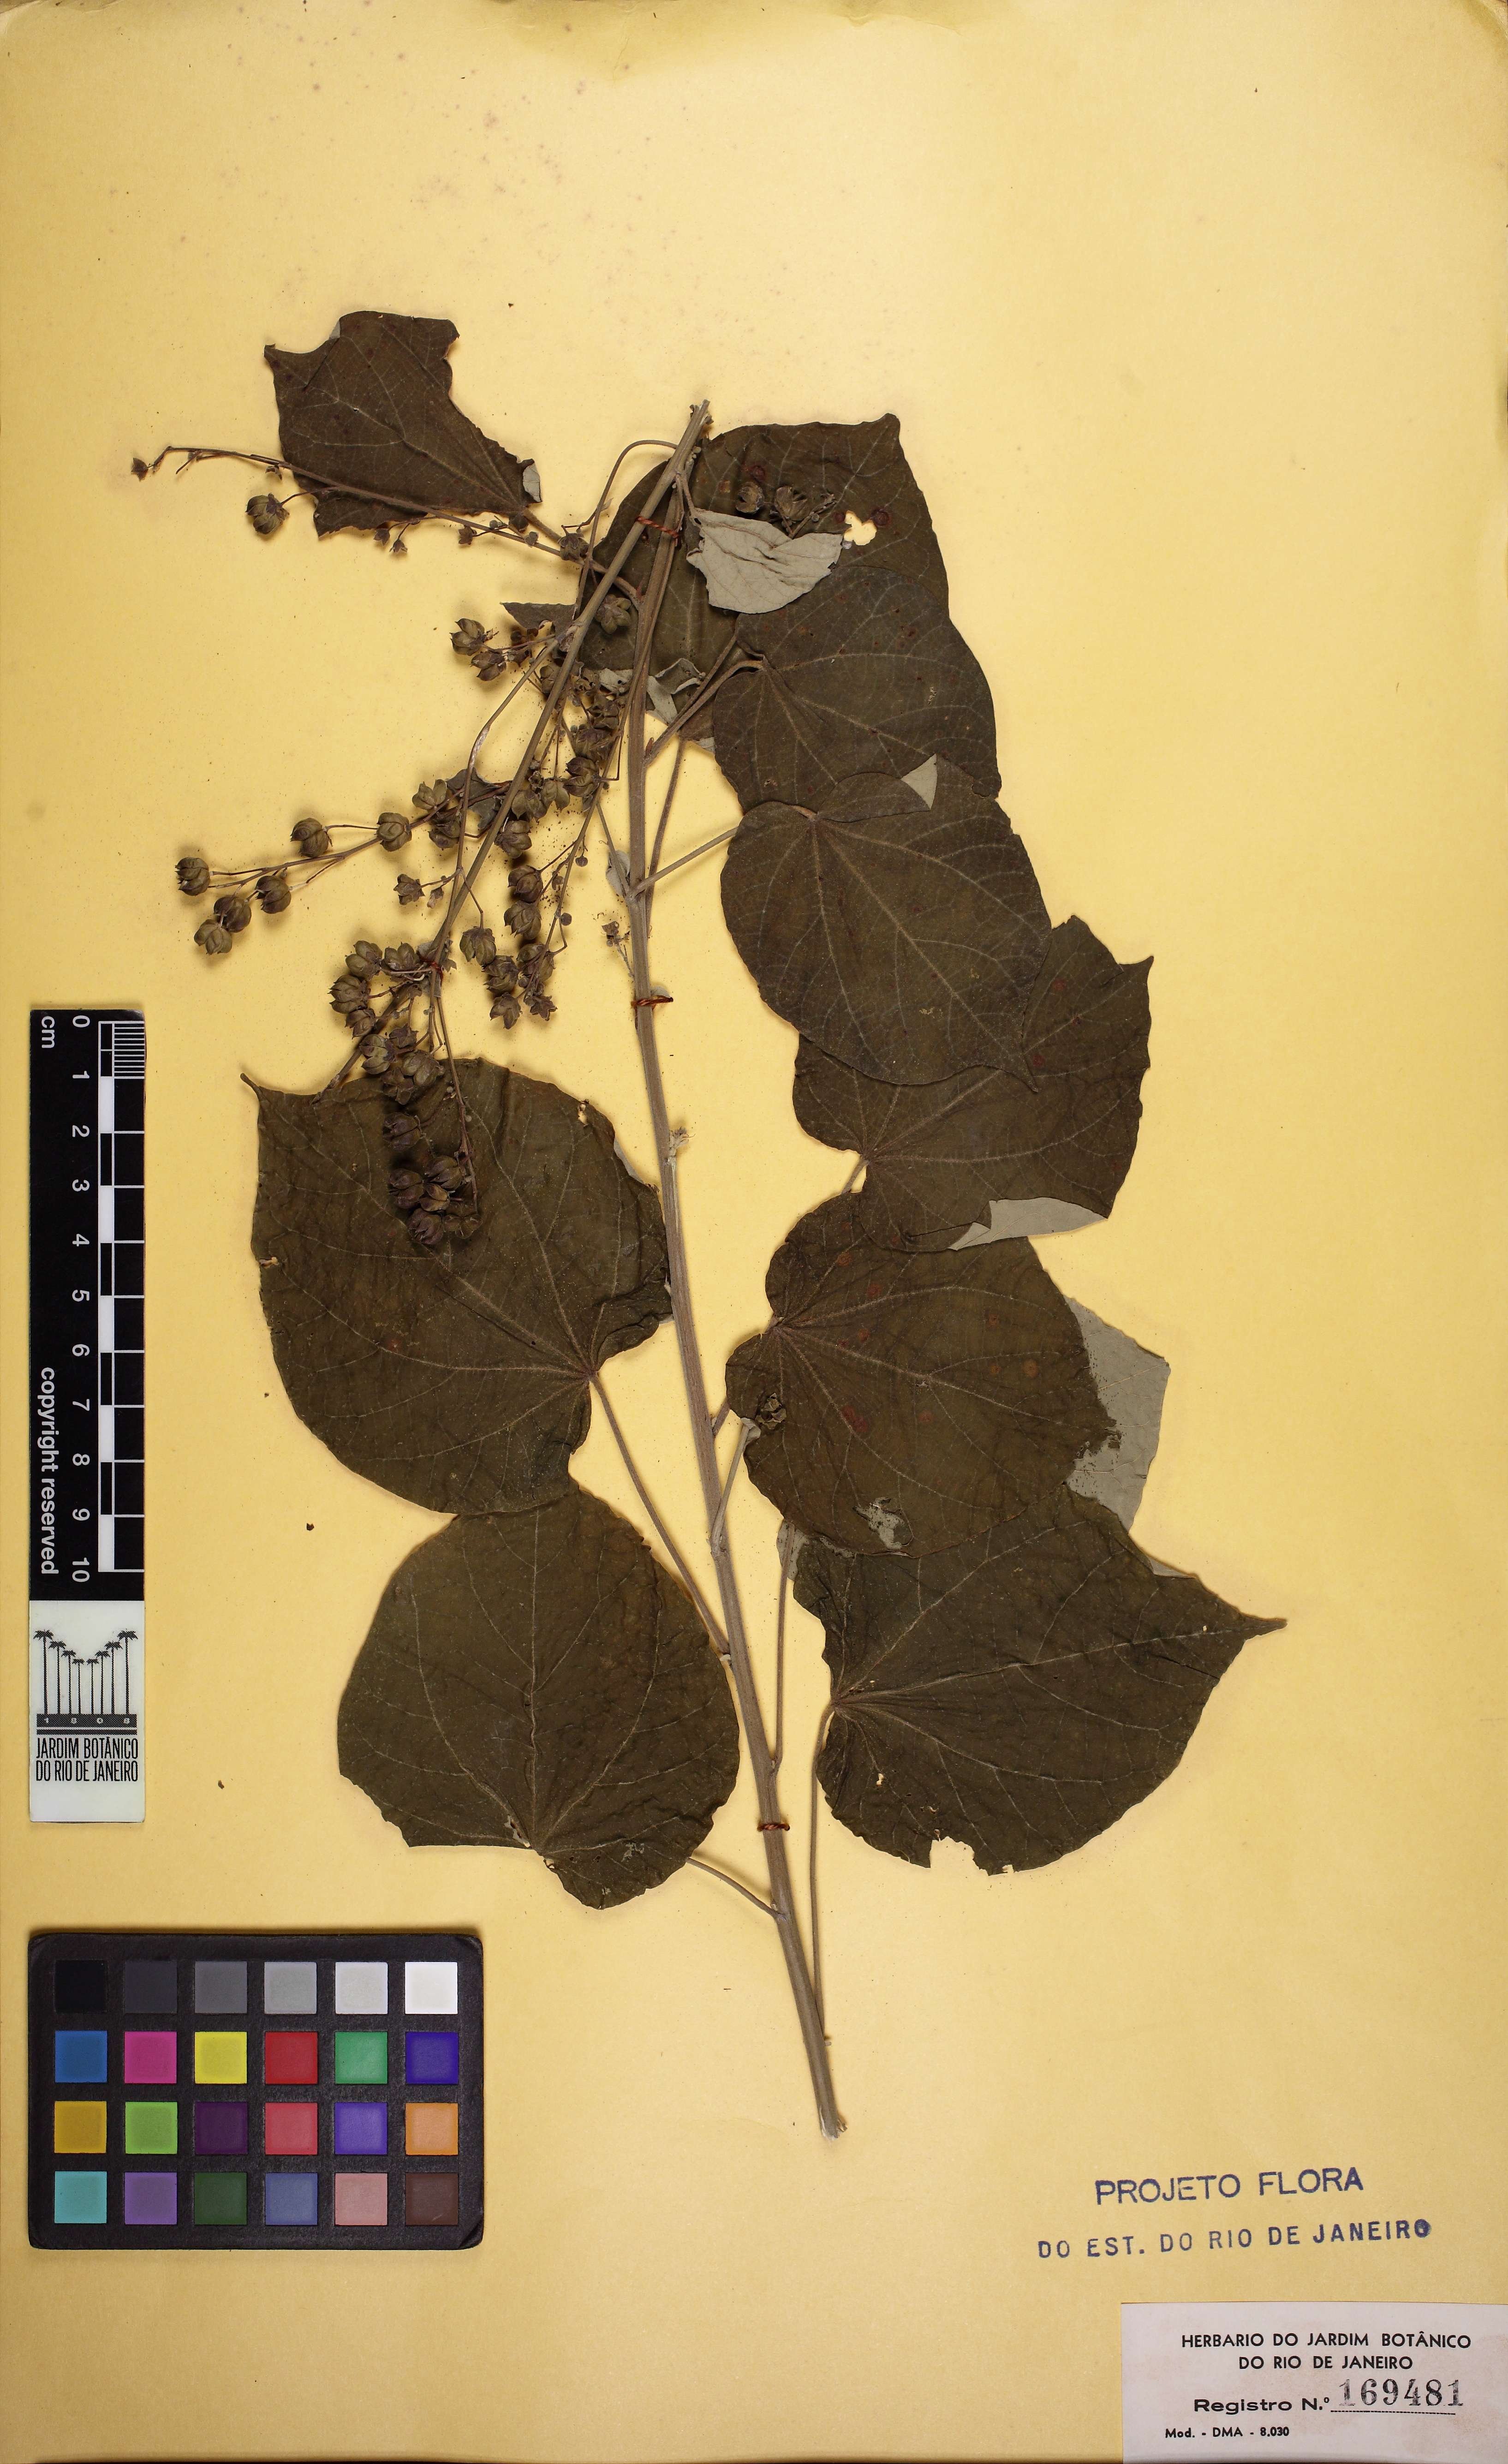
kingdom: Plantae
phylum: Tracheophyta
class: Magnoliopsida
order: Malvales
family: Malvaceae
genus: Wissadula
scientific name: Wissadula contracta
